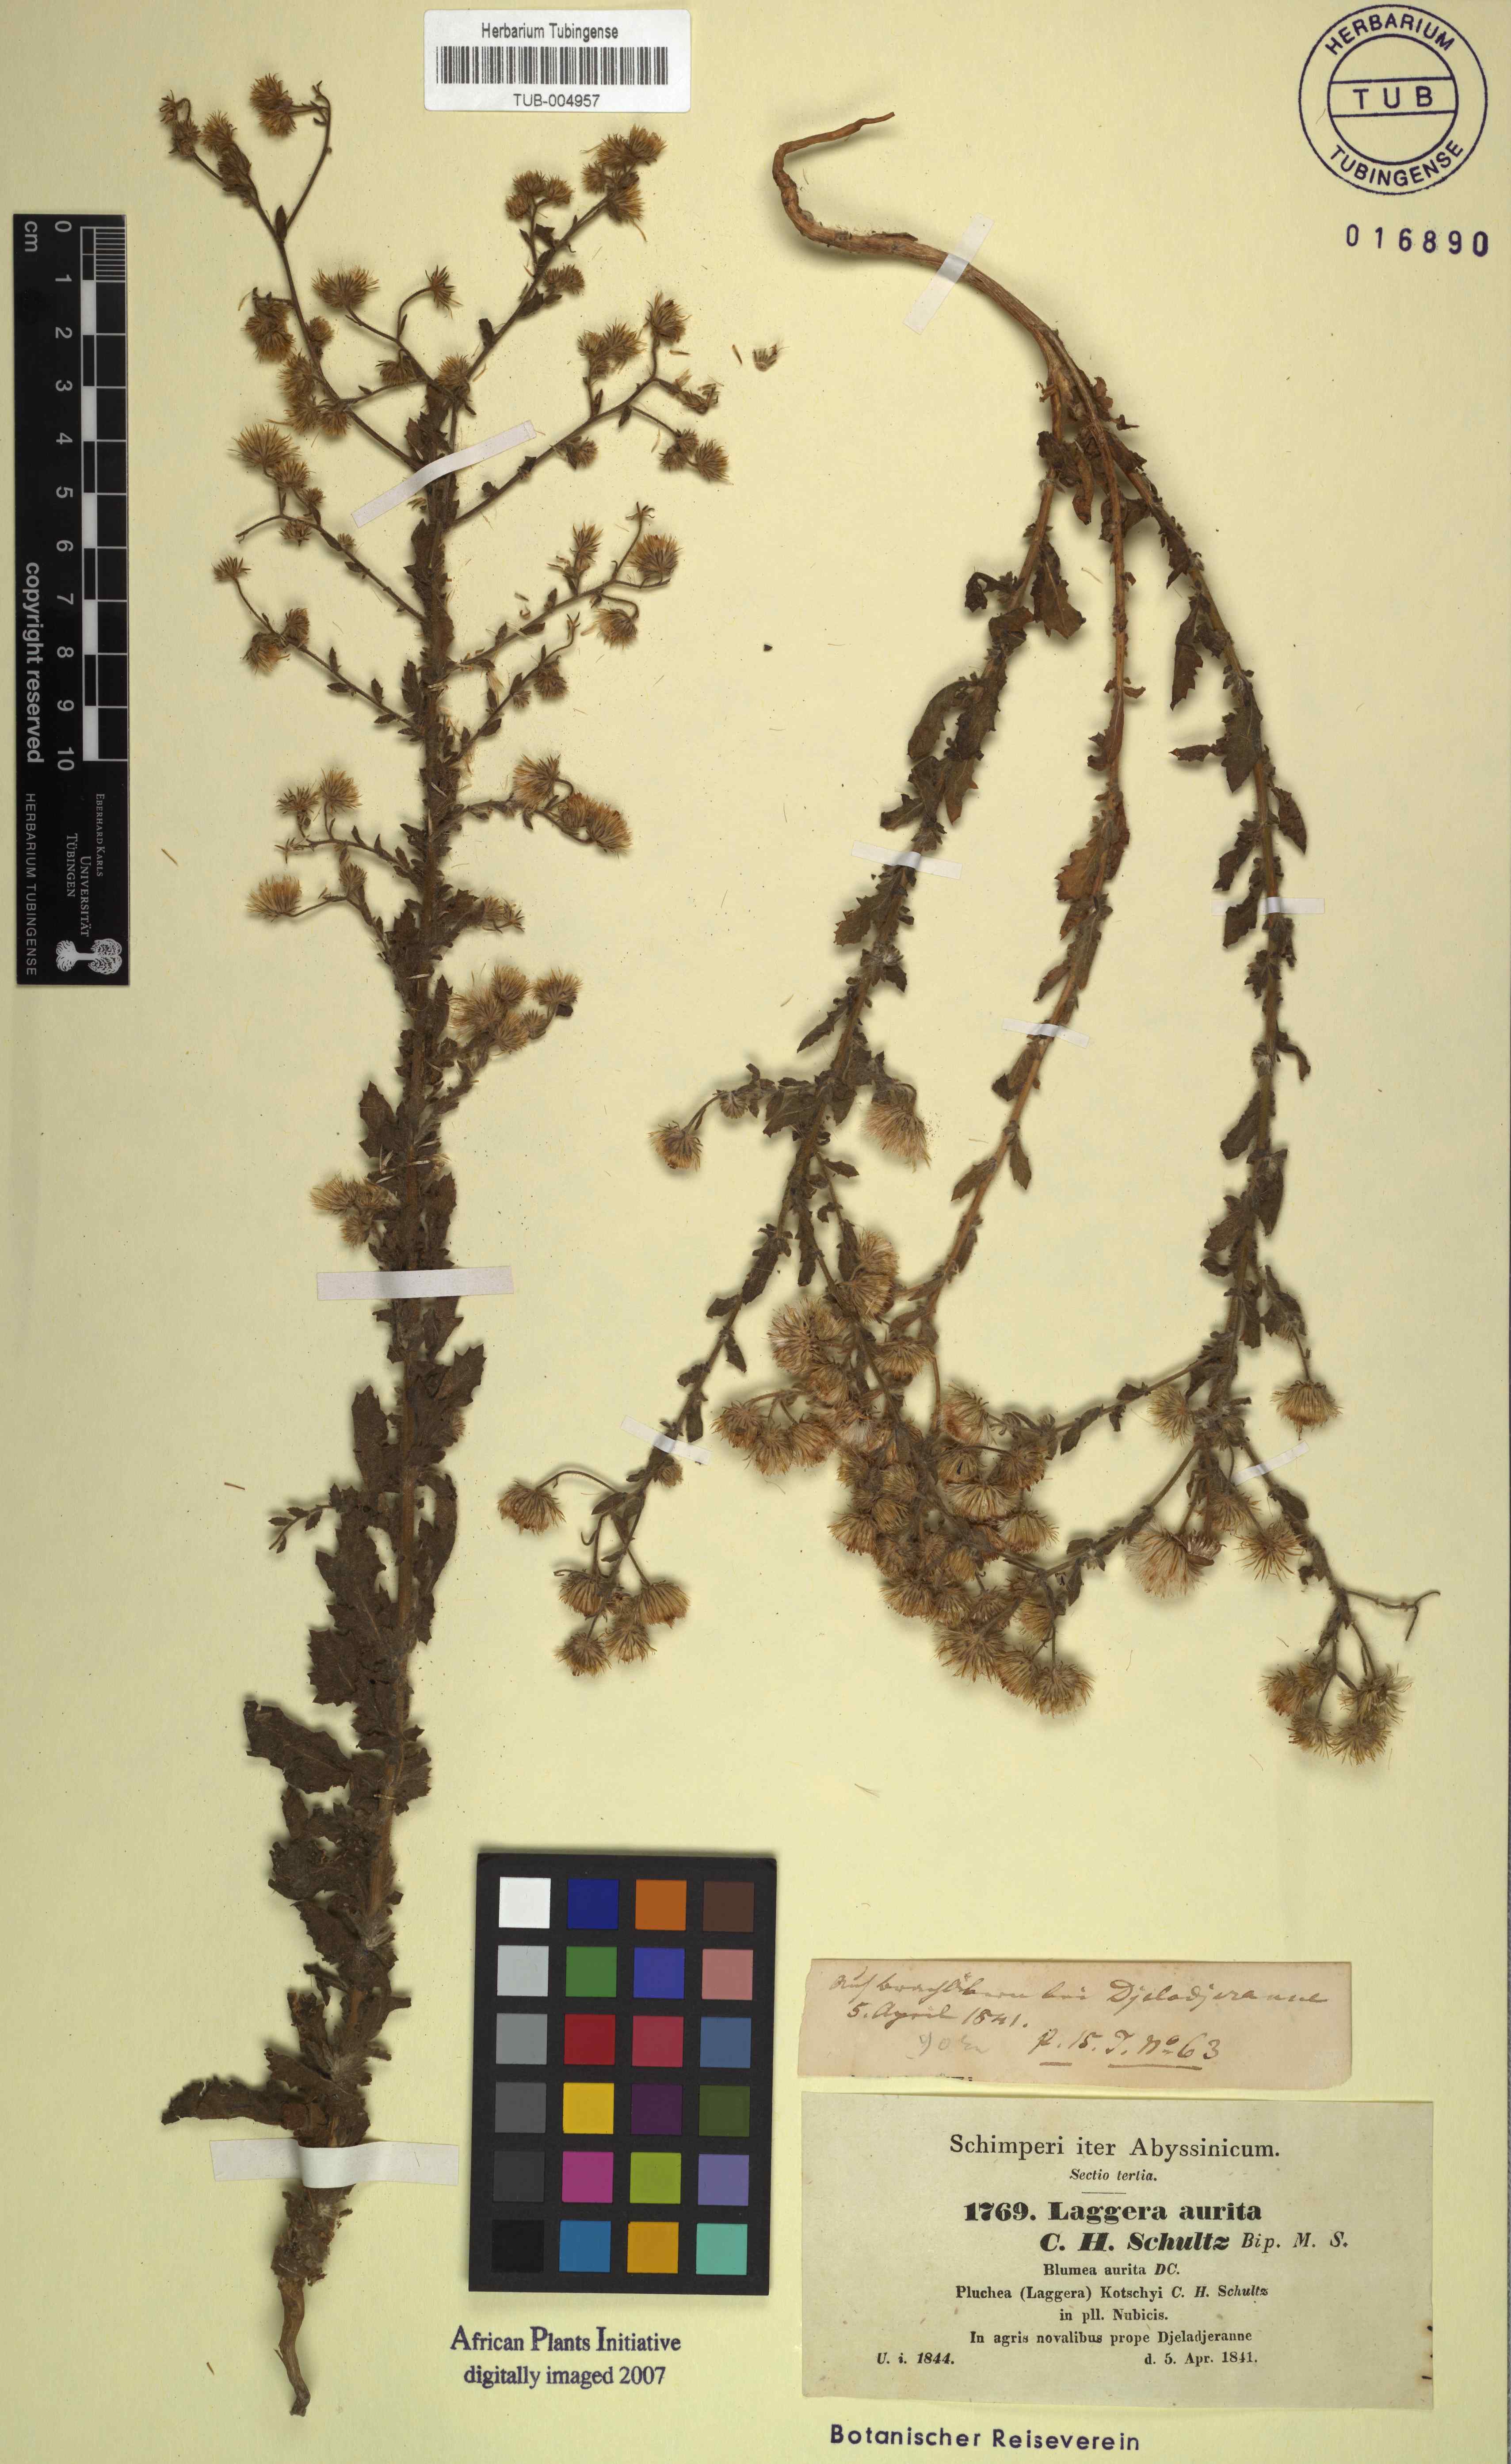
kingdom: Plantae
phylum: Tracheophyta
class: Magnoliopsida
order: Asterales
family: Asteraceae
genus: Pseudoconyza
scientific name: Pseudoconyza viscosa
